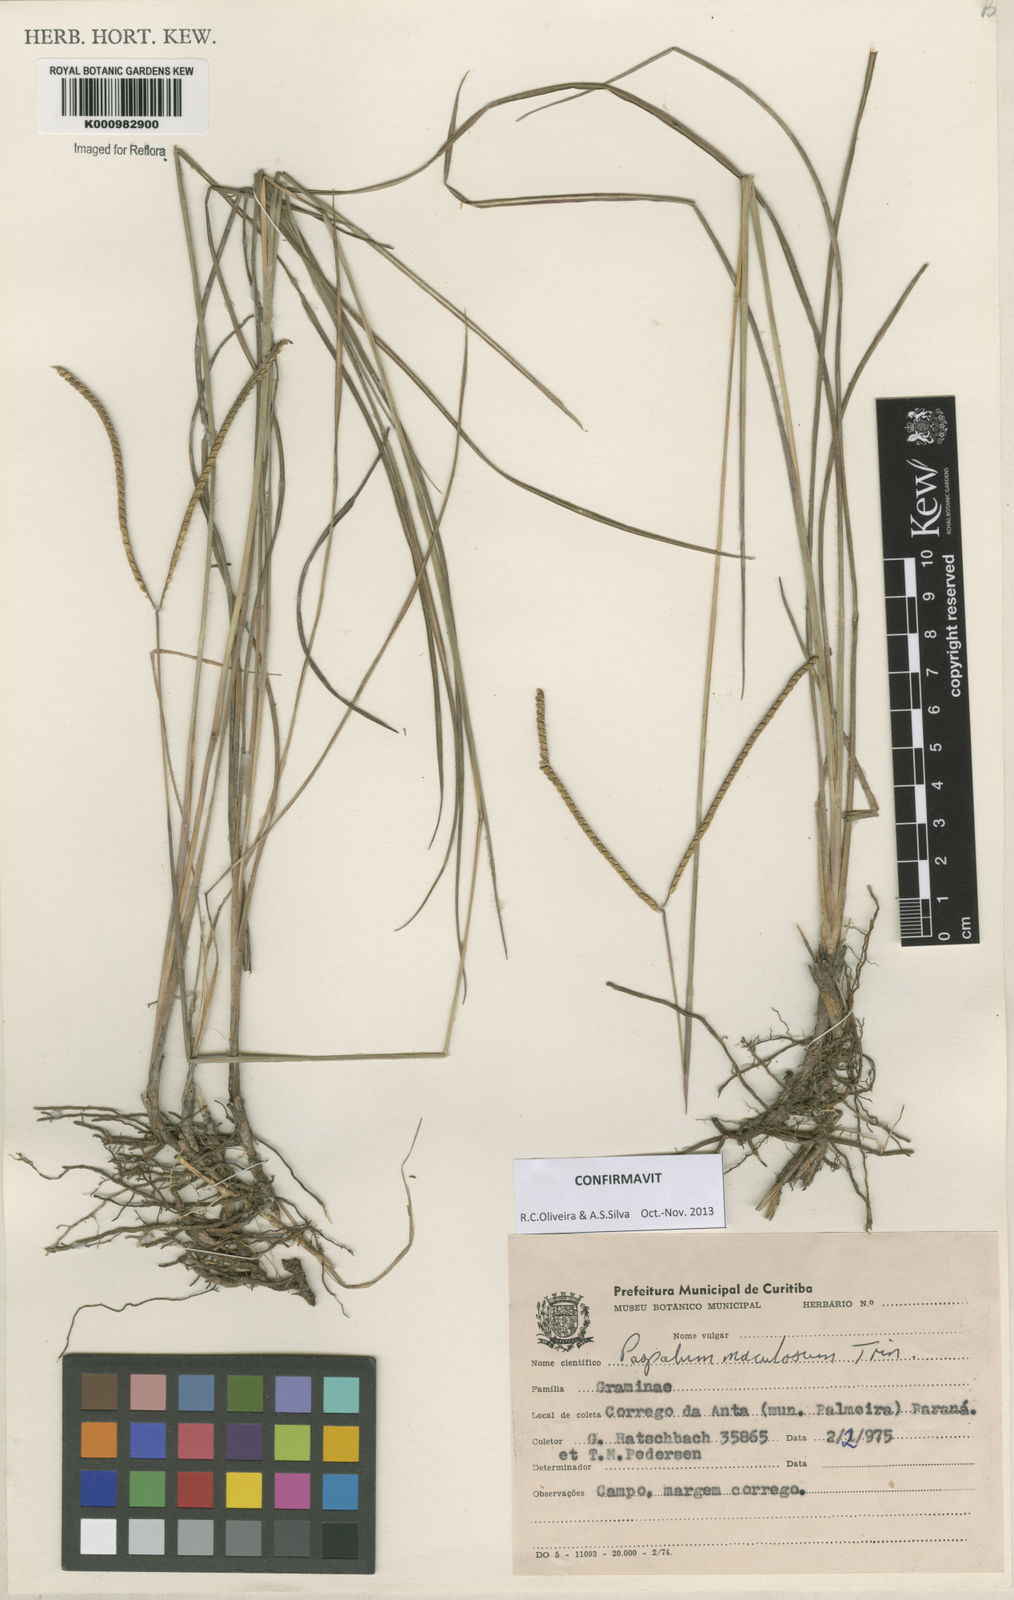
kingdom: Plantae
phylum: Tracheophyta
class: Liliopsida
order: Poales
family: Poaceae
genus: Paspalum
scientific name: Paspalum maculosum
